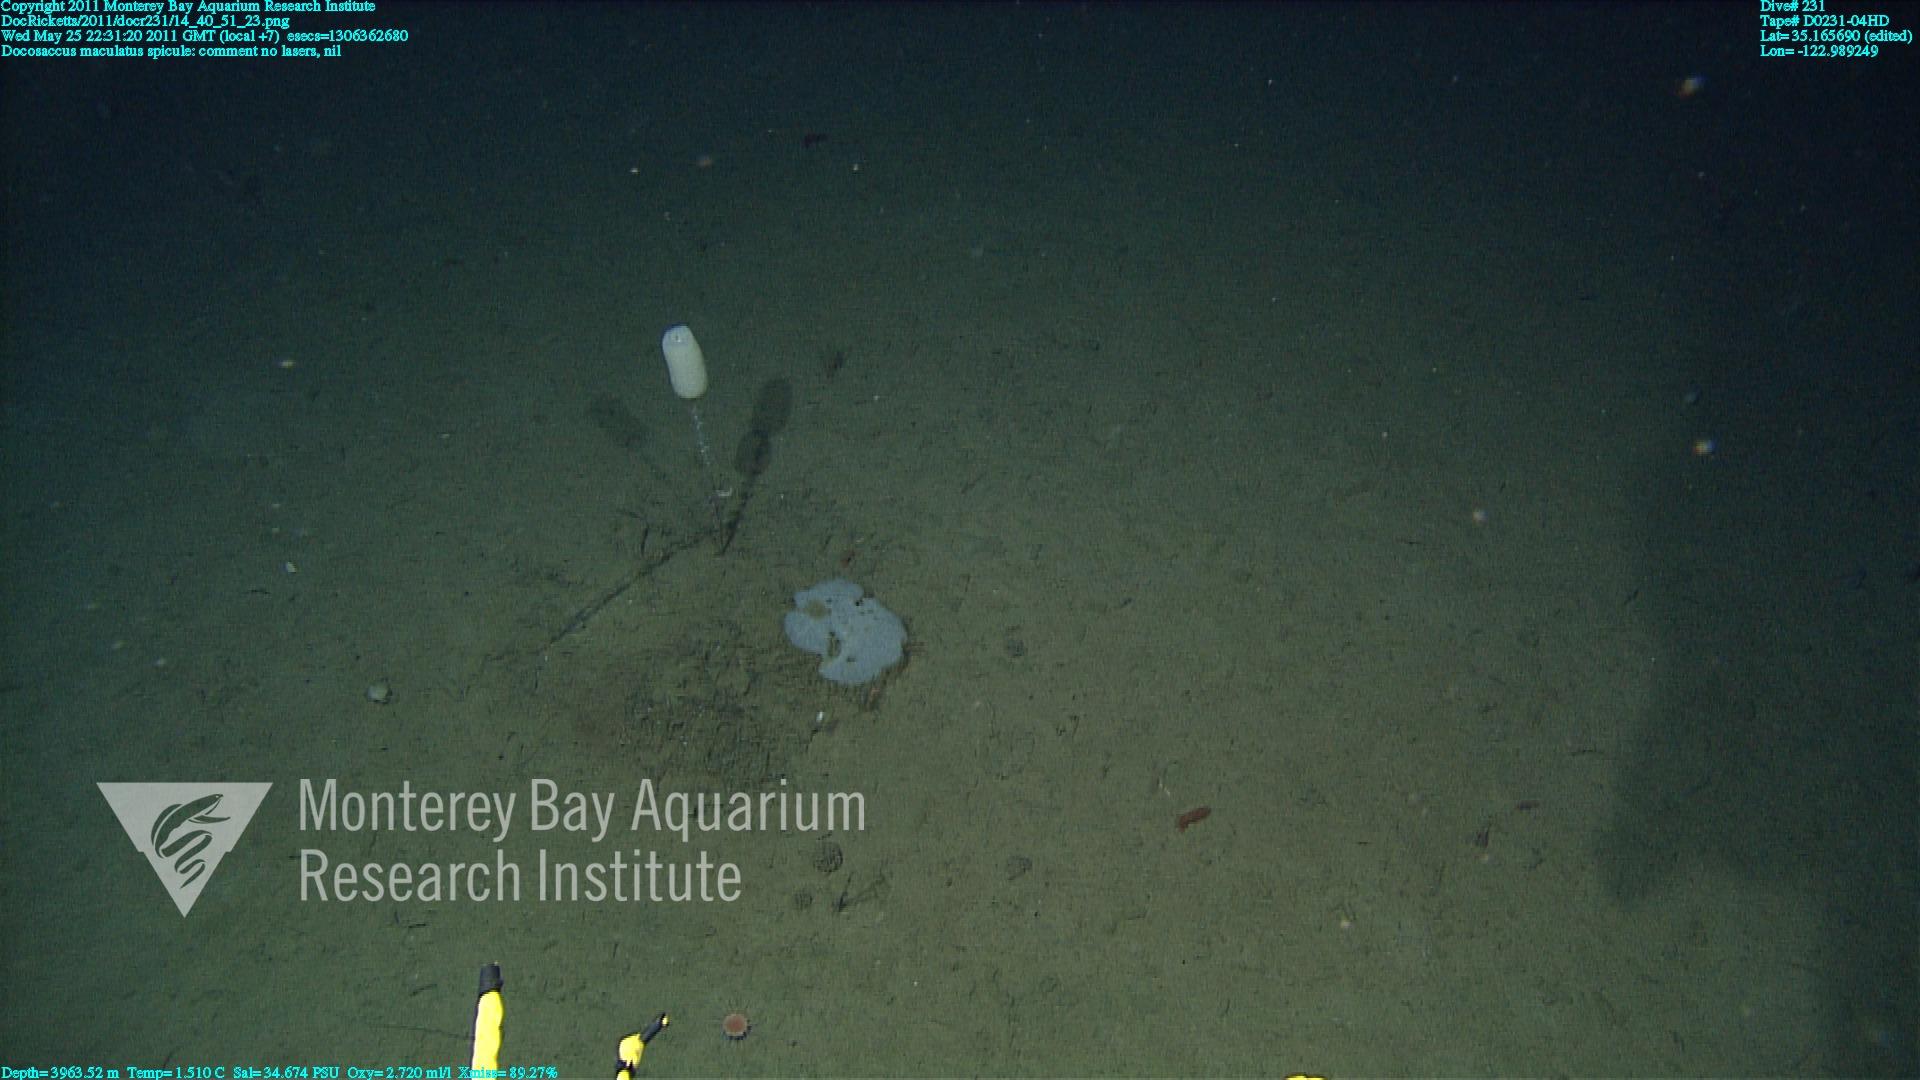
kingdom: Animalia
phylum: Porifera
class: Hexactinellida
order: Lyssacinosida
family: Euplectellidae
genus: Docosaccus
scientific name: Docosaccus maculatus
